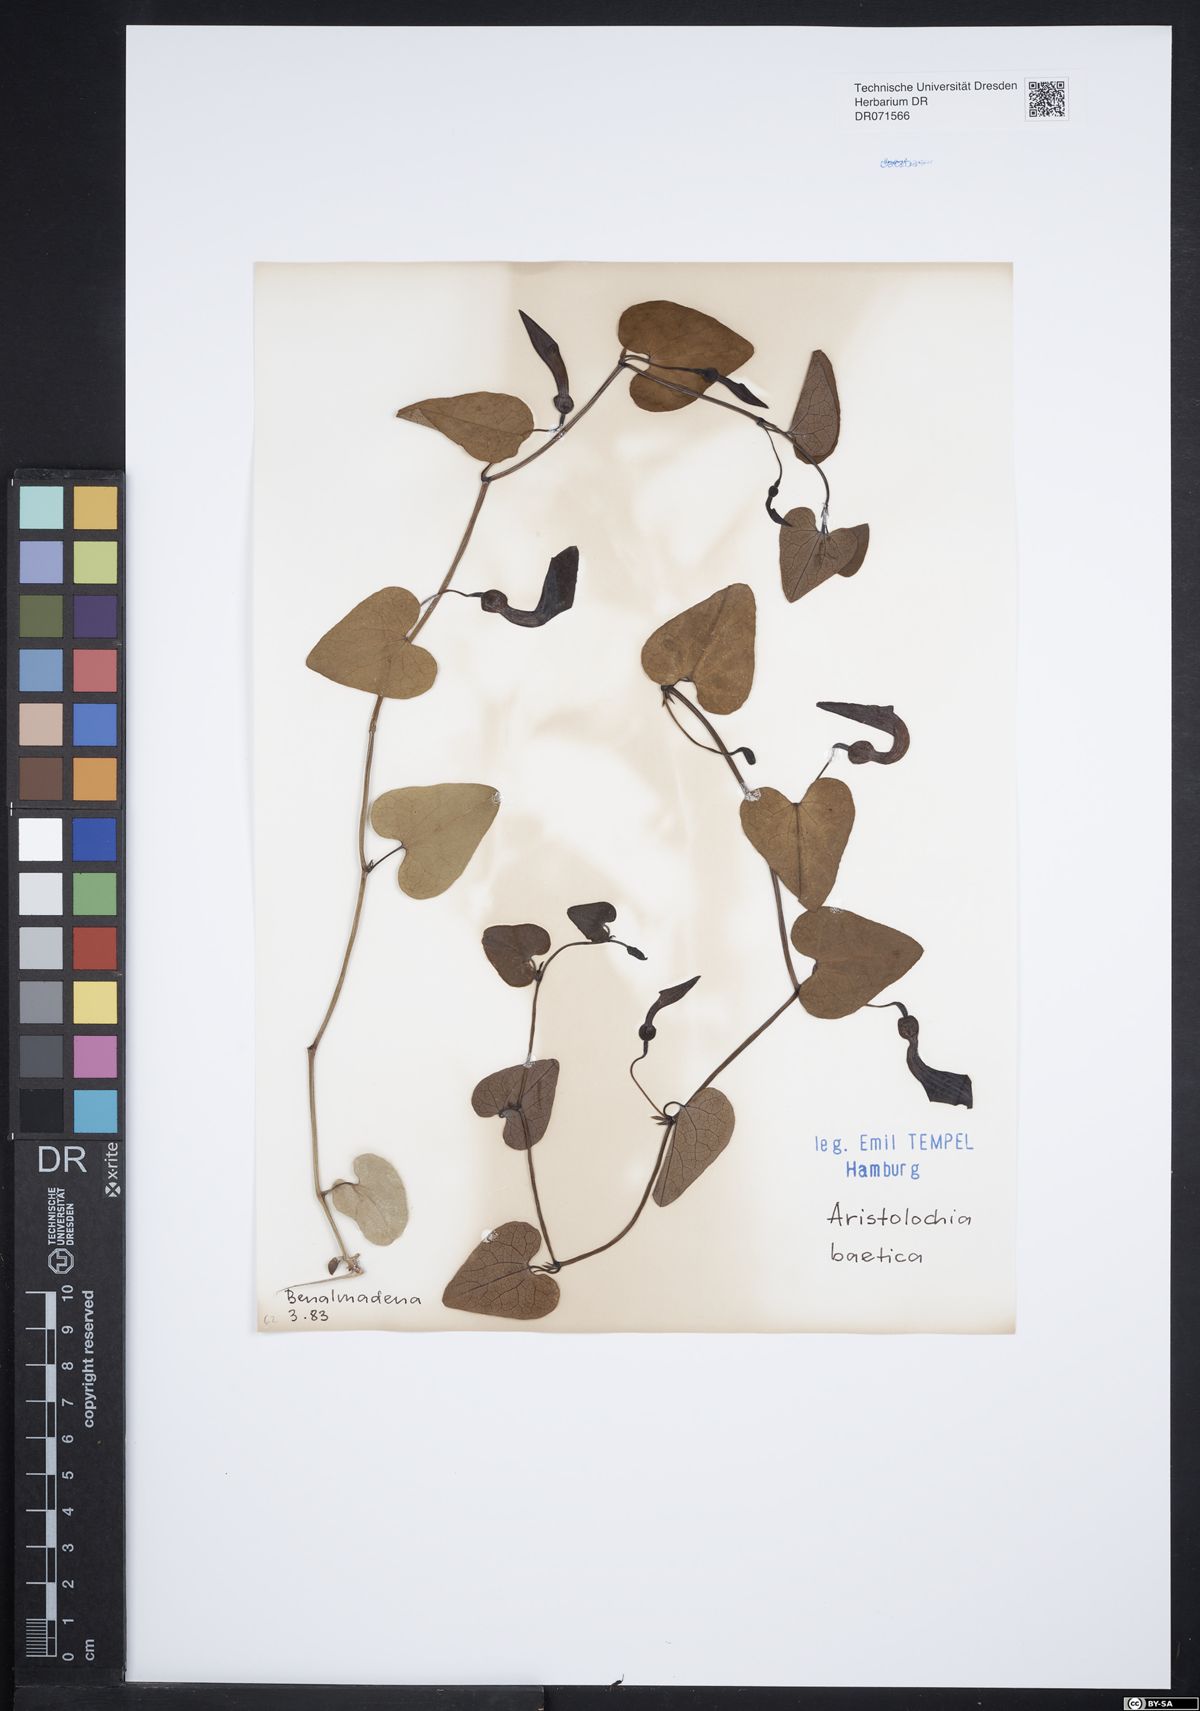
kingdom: Plantae
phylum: Tracheophyta
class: Magnoliopsida
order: Piperales
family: Aristolochiaceae
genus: Aristolochia
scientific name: Aristolochia baetica
